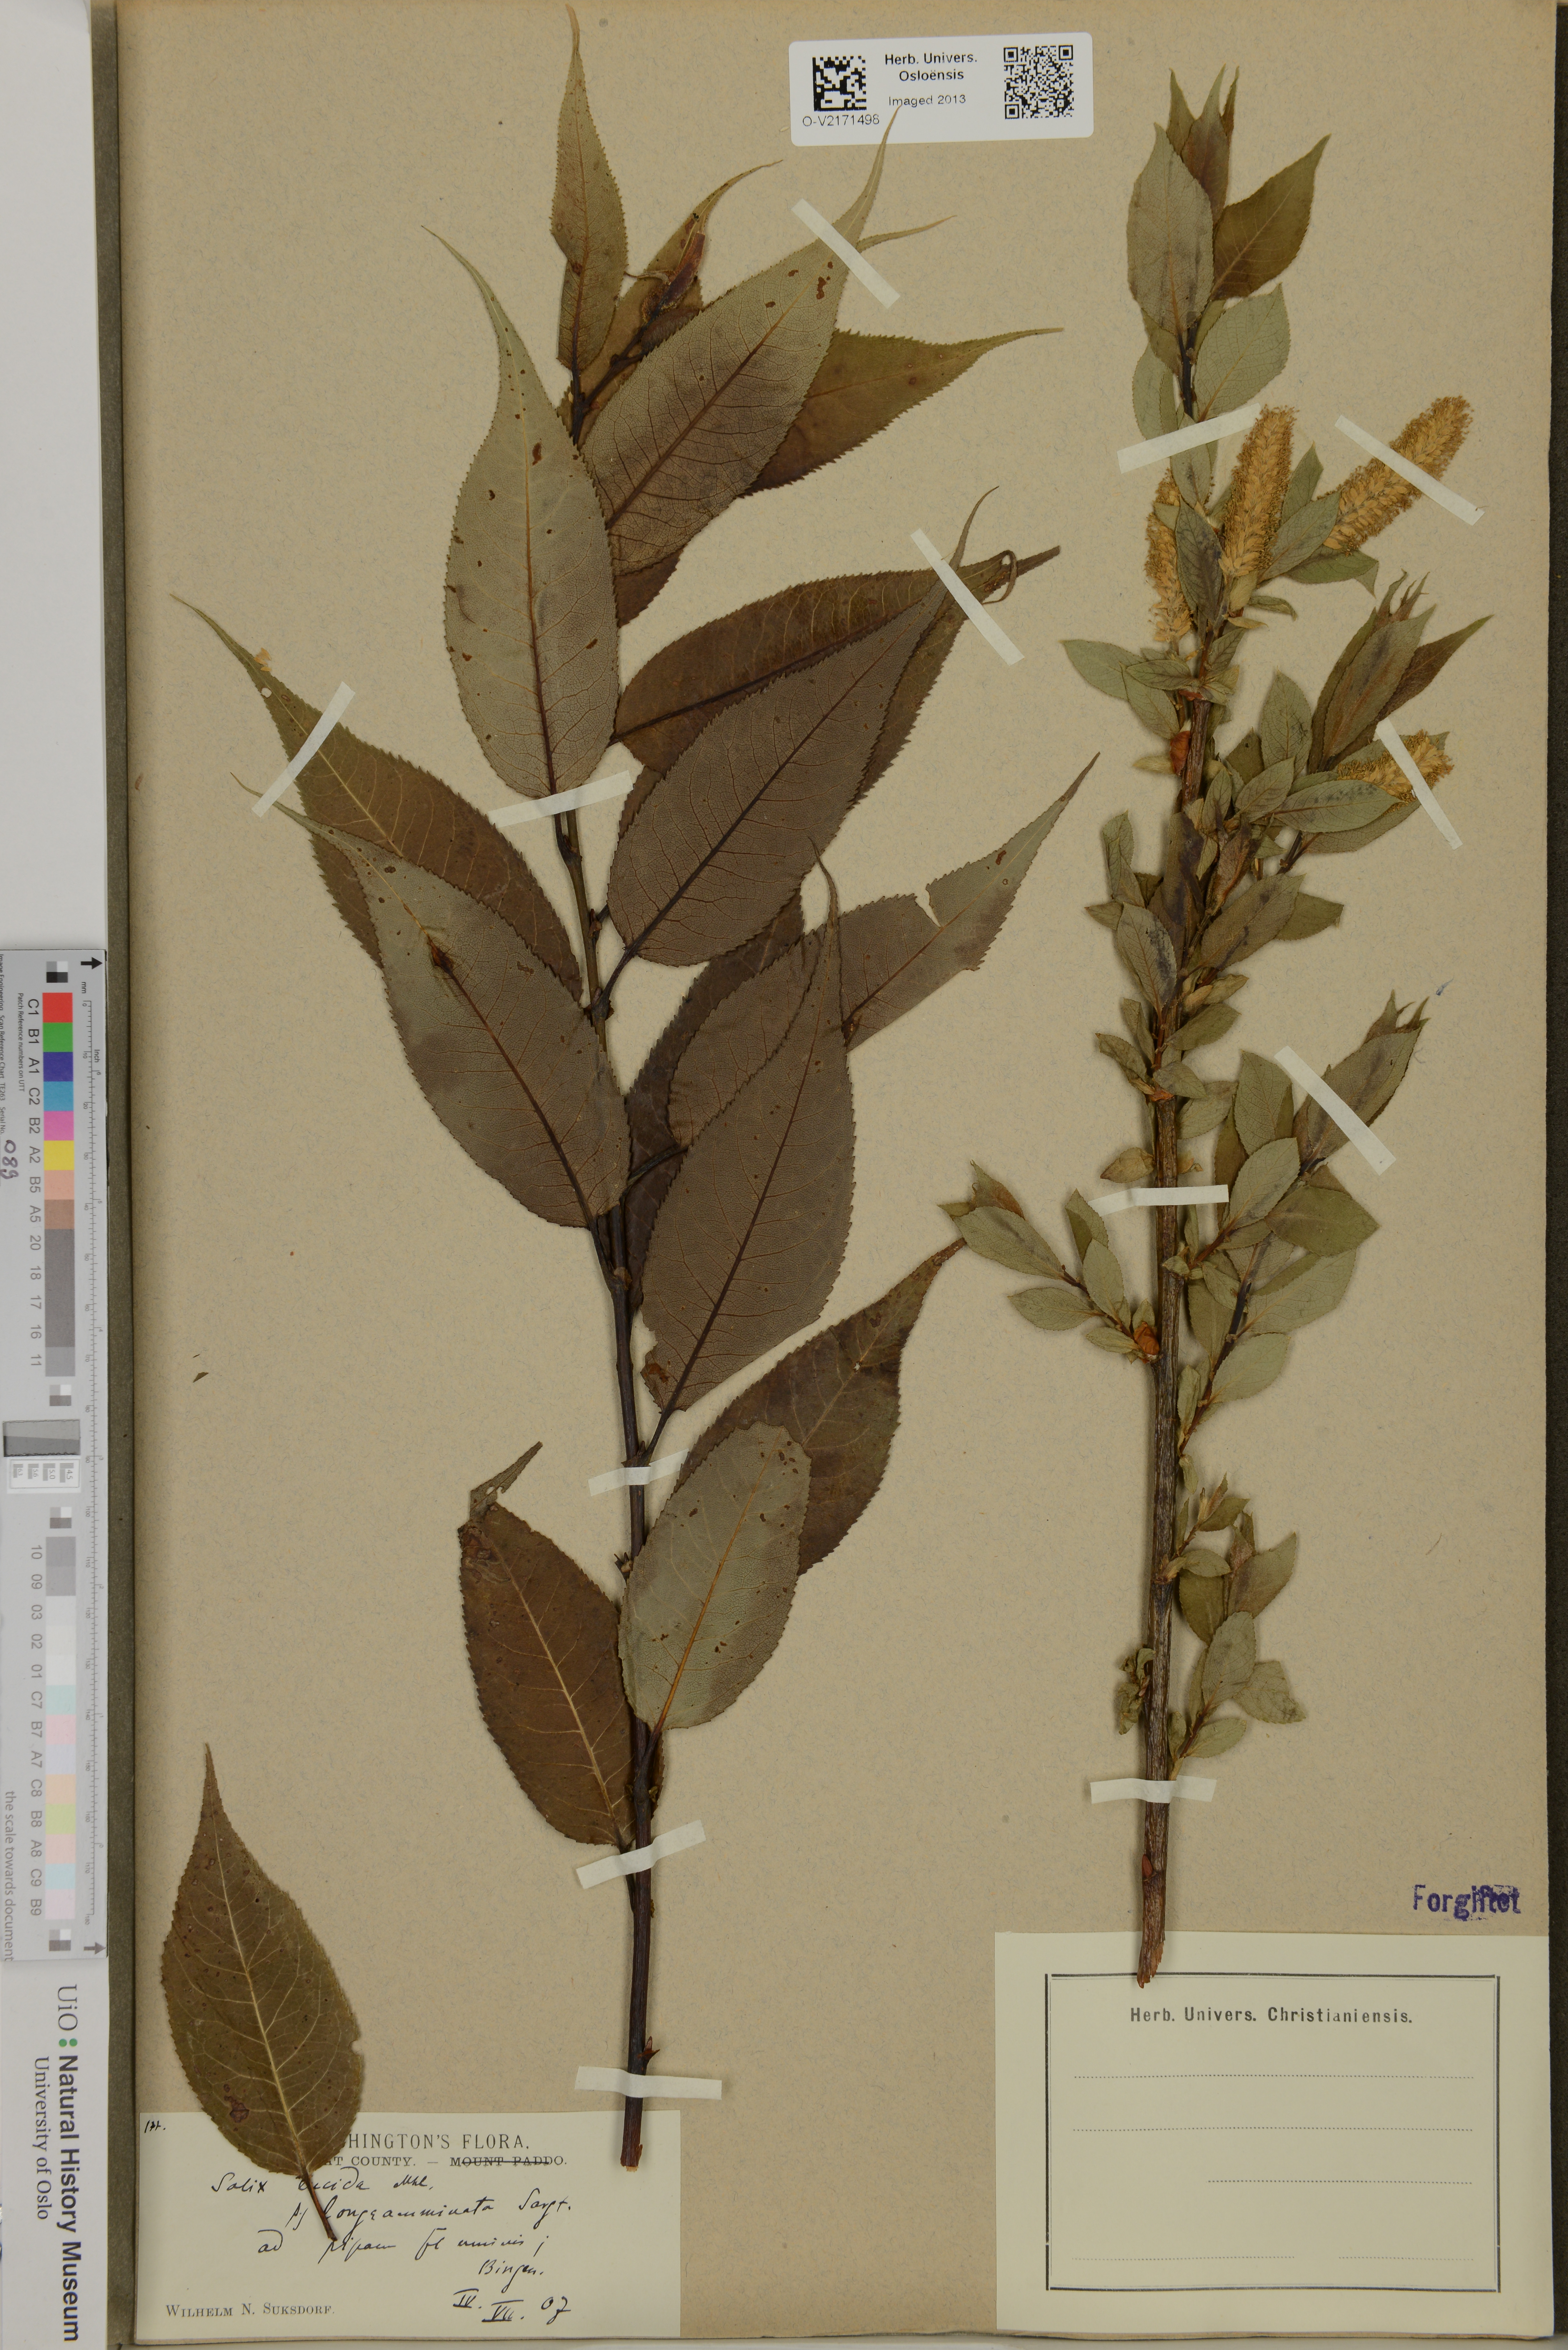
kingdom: Plantae
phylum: Tracheophyta
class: Magnoliopsida
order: Malpighiales
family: Salicaceae
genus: Salix
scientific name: Salix lucida
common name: Shining willow
